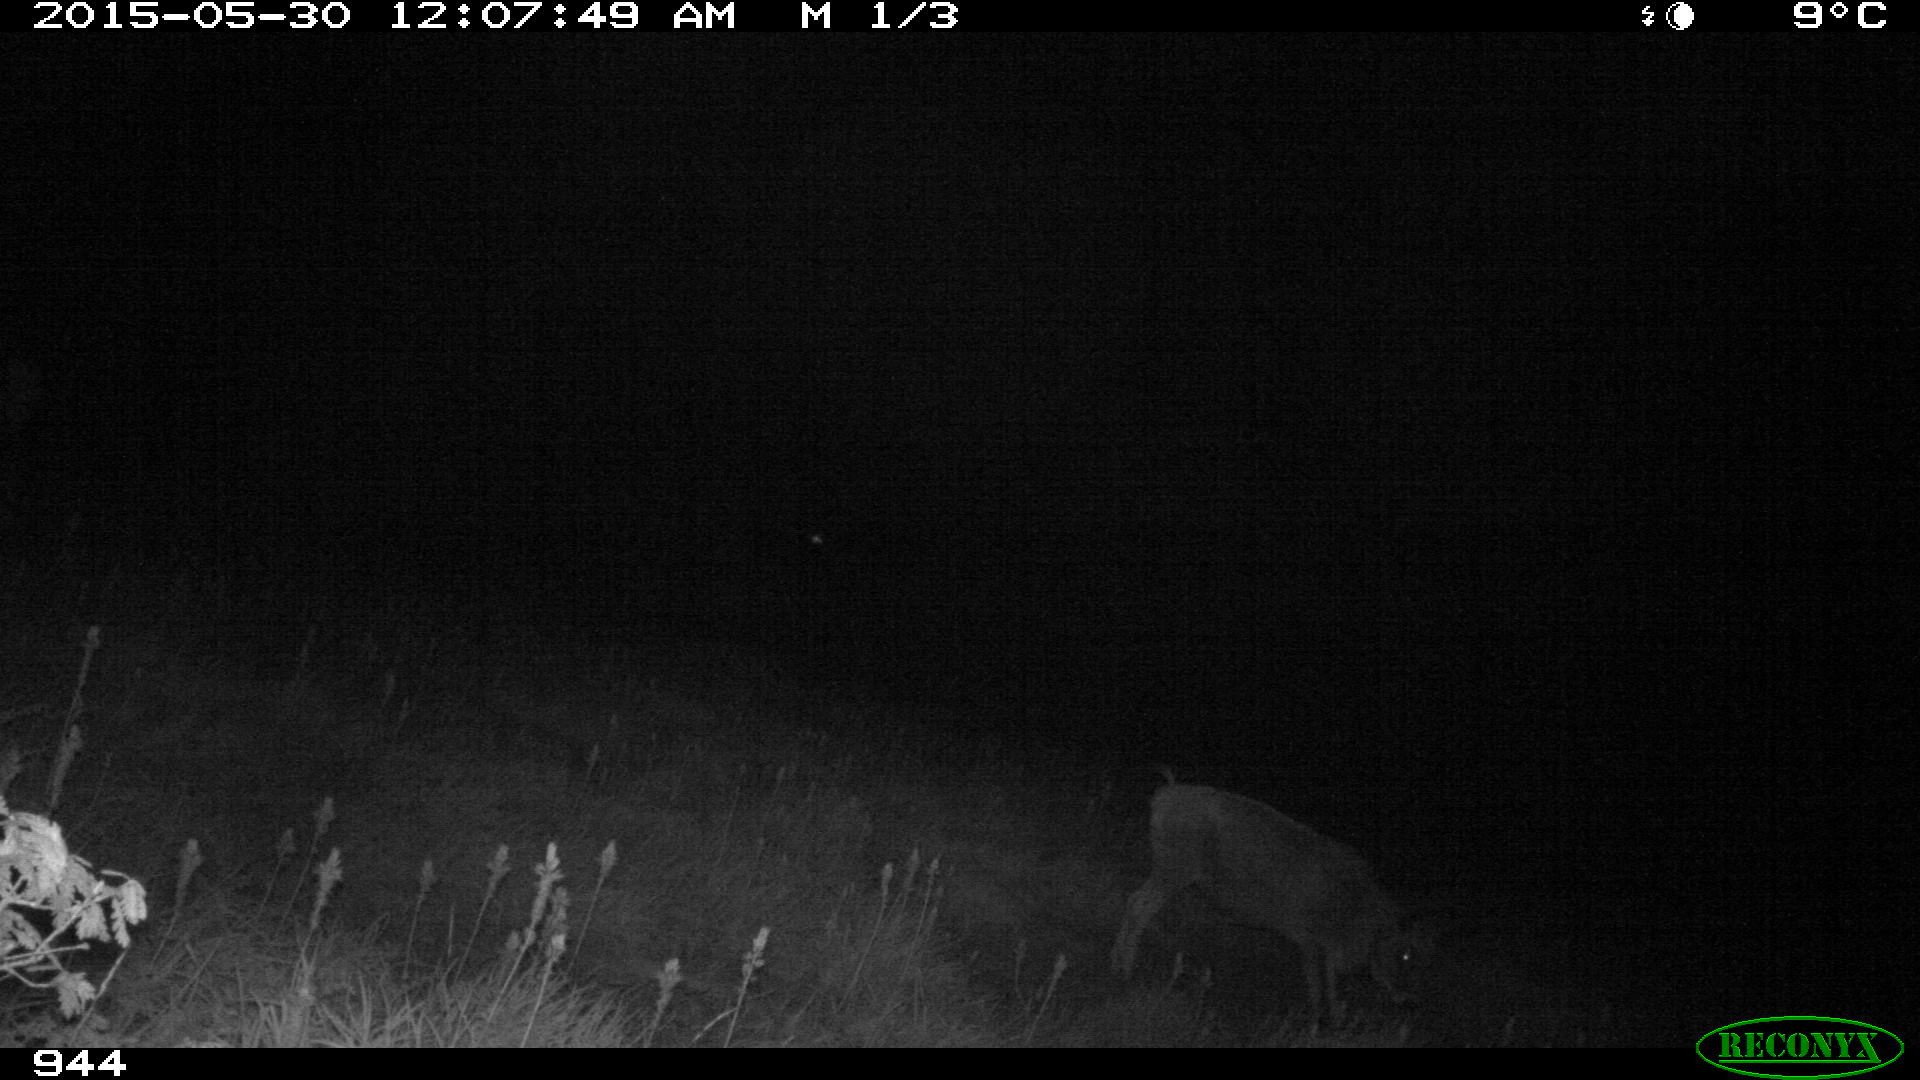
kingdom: Animalia
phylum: Chordata
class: Mammalia
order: Artiodactyla
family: Bovidae
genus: Bos
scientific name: Bos taurus
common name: Domesticated cattle
